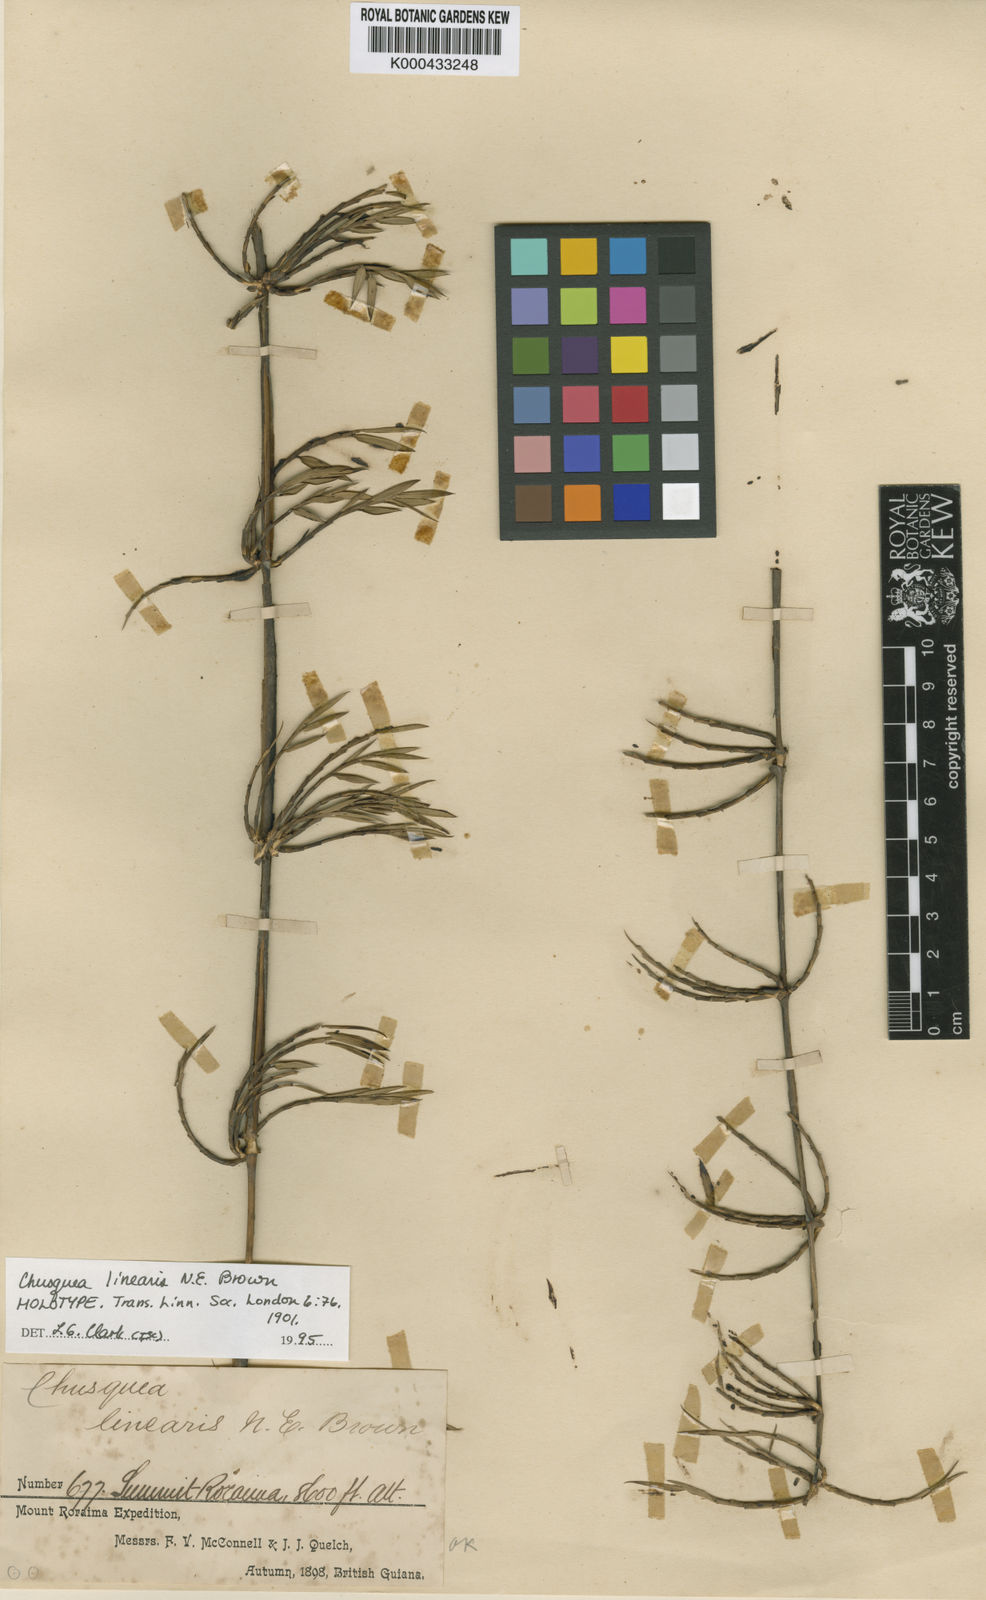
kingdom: Plantae
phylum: Tracheophyta
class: Liliopsida
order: Poales
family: Poaceae
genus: Chusquea
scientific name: Chusquea linearis
